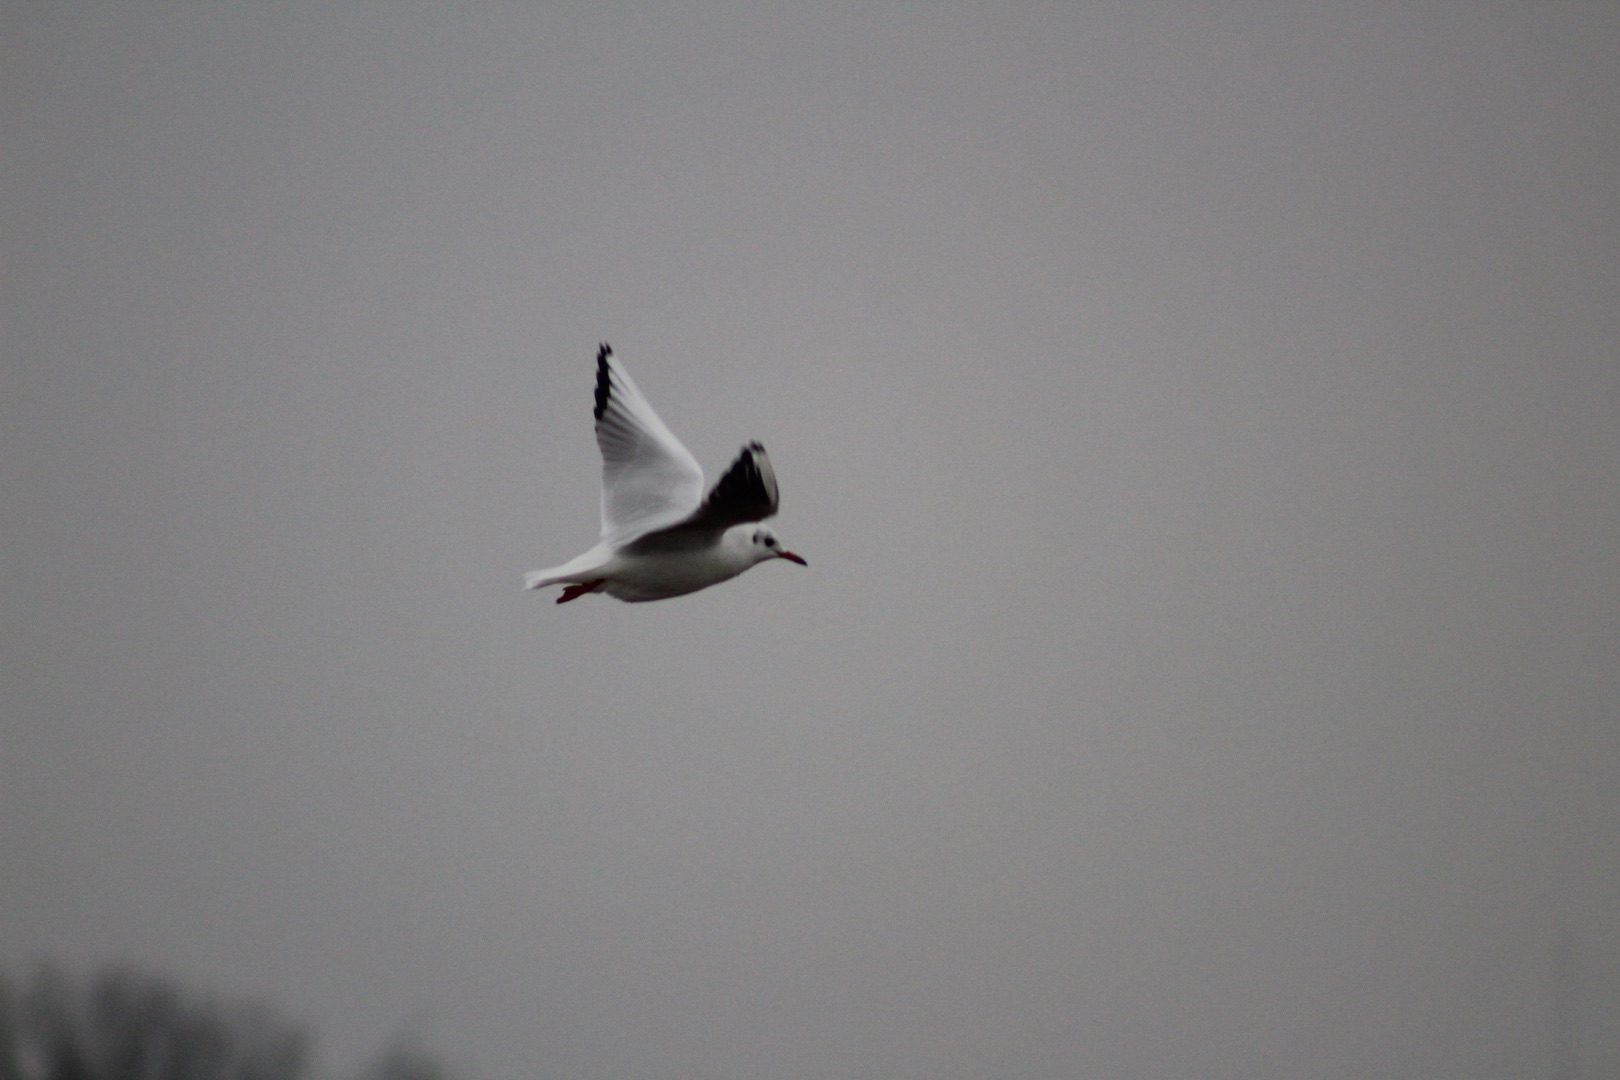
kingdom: Animalia
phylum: Chordata
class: Aves
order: Charadriiformes
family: Laridae
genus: Chroicocephalus
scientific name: Chroicocephalus ridibundus
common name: Hættemåge
